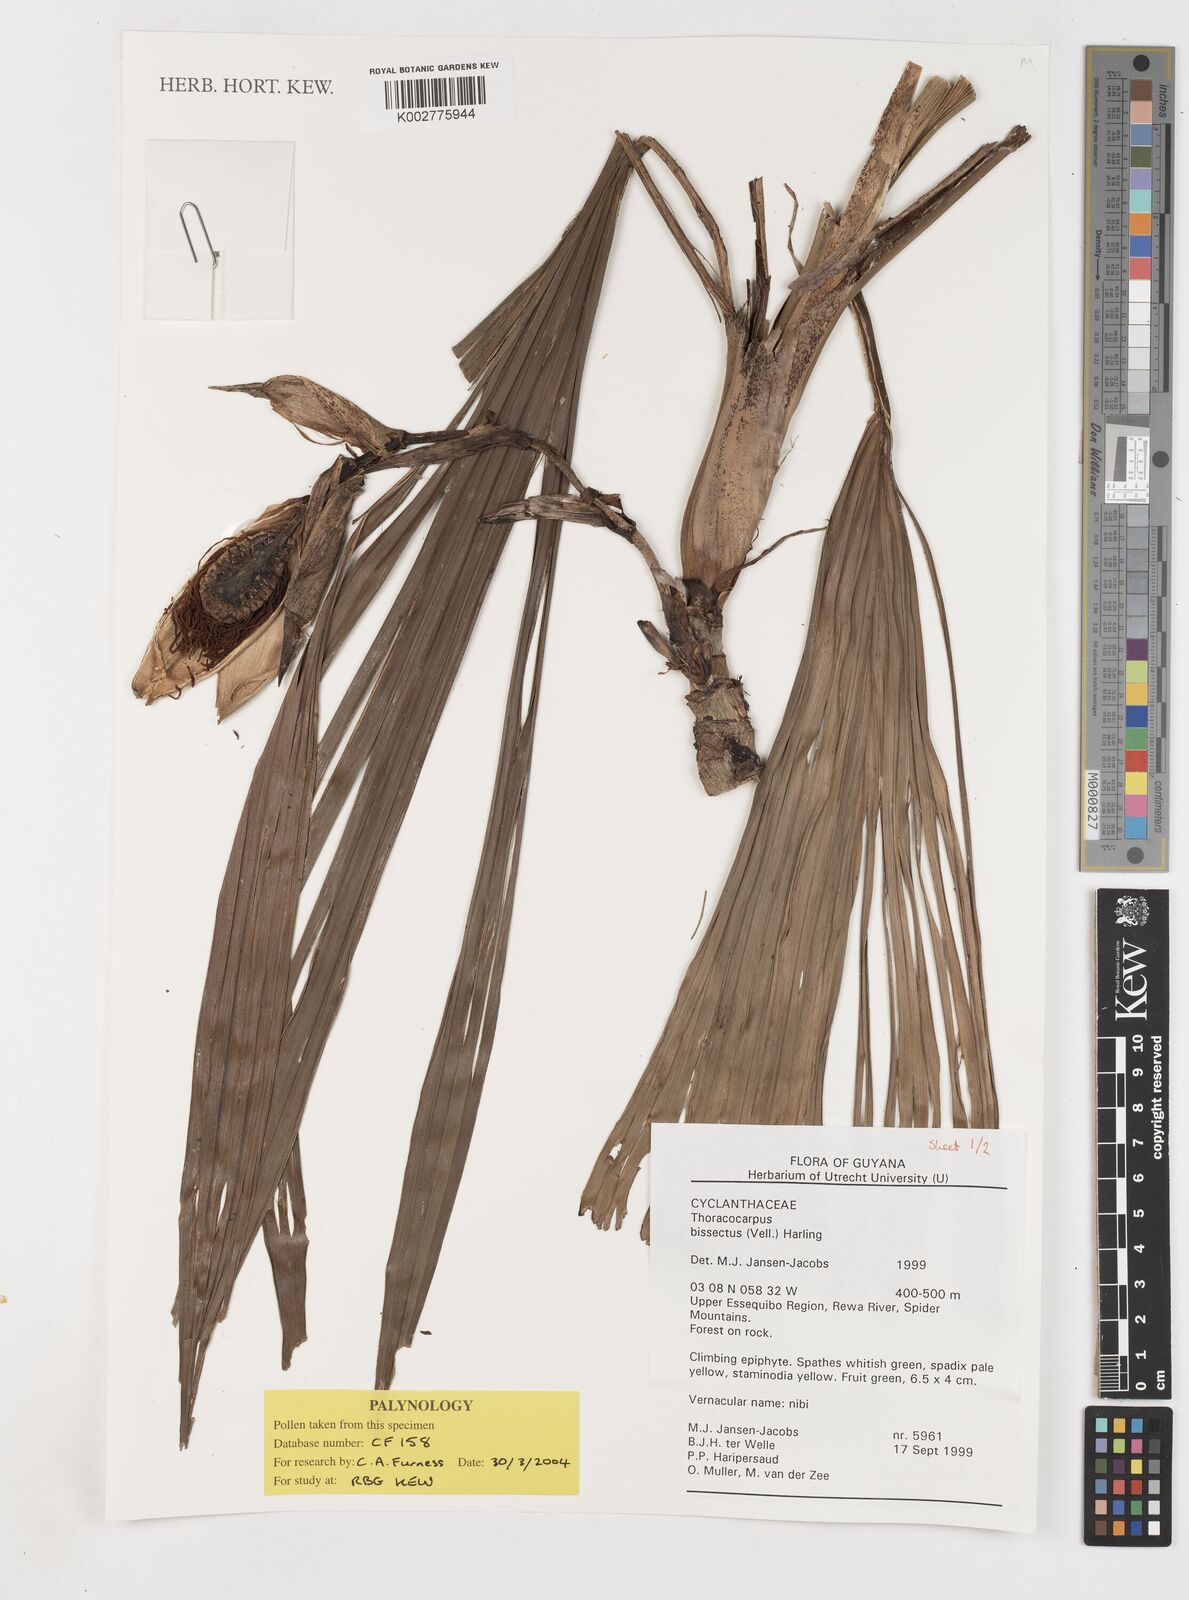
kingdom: Plantae
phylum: Tracheophyta
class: Liliopsida
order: Pandanales
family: Cyclanthaceae
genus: Thoracocarpus
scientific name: Thoracocarpus bissectus
